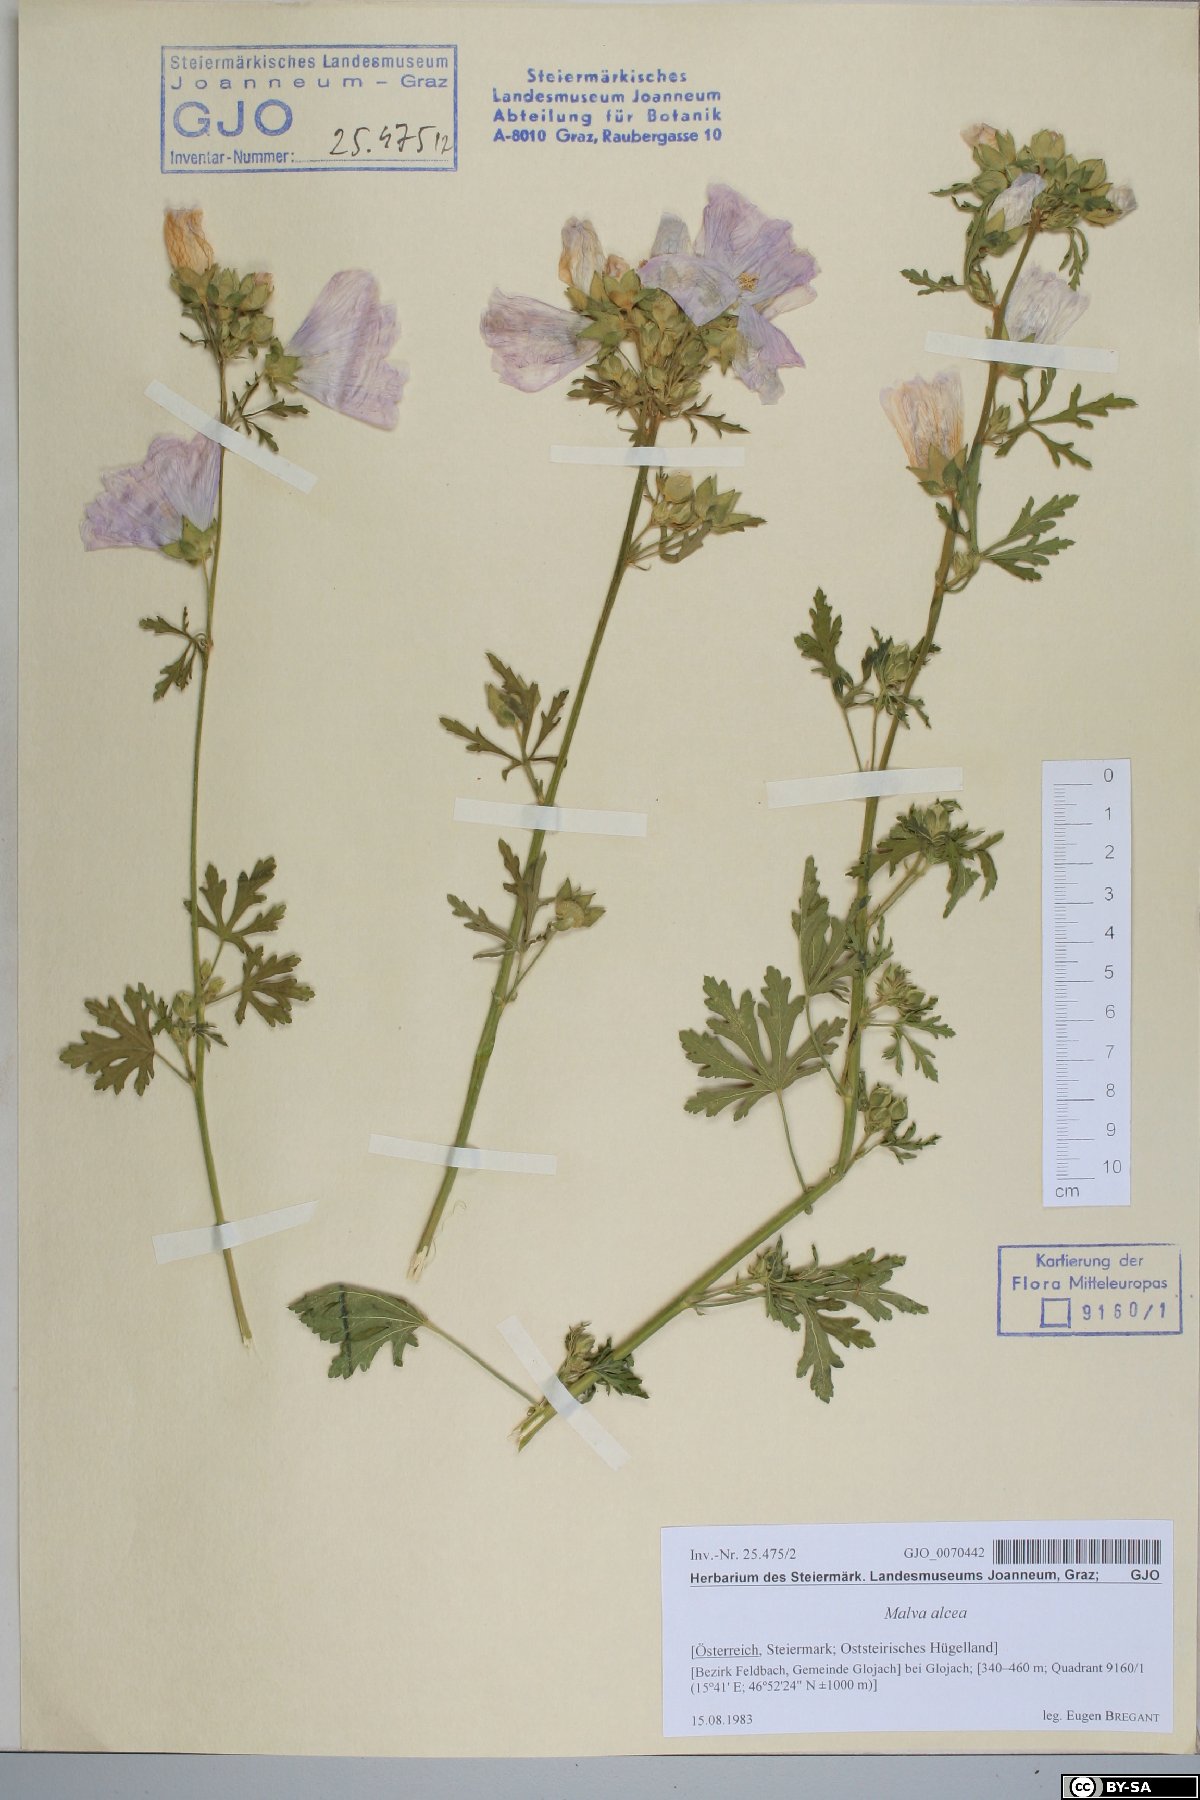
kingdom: Plantae
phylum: Tracheophyta
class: Magnoliopsida
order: Malvales
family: Malvaceae
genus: Malva
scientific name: Malva alcea
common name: Greater musk-mallow
